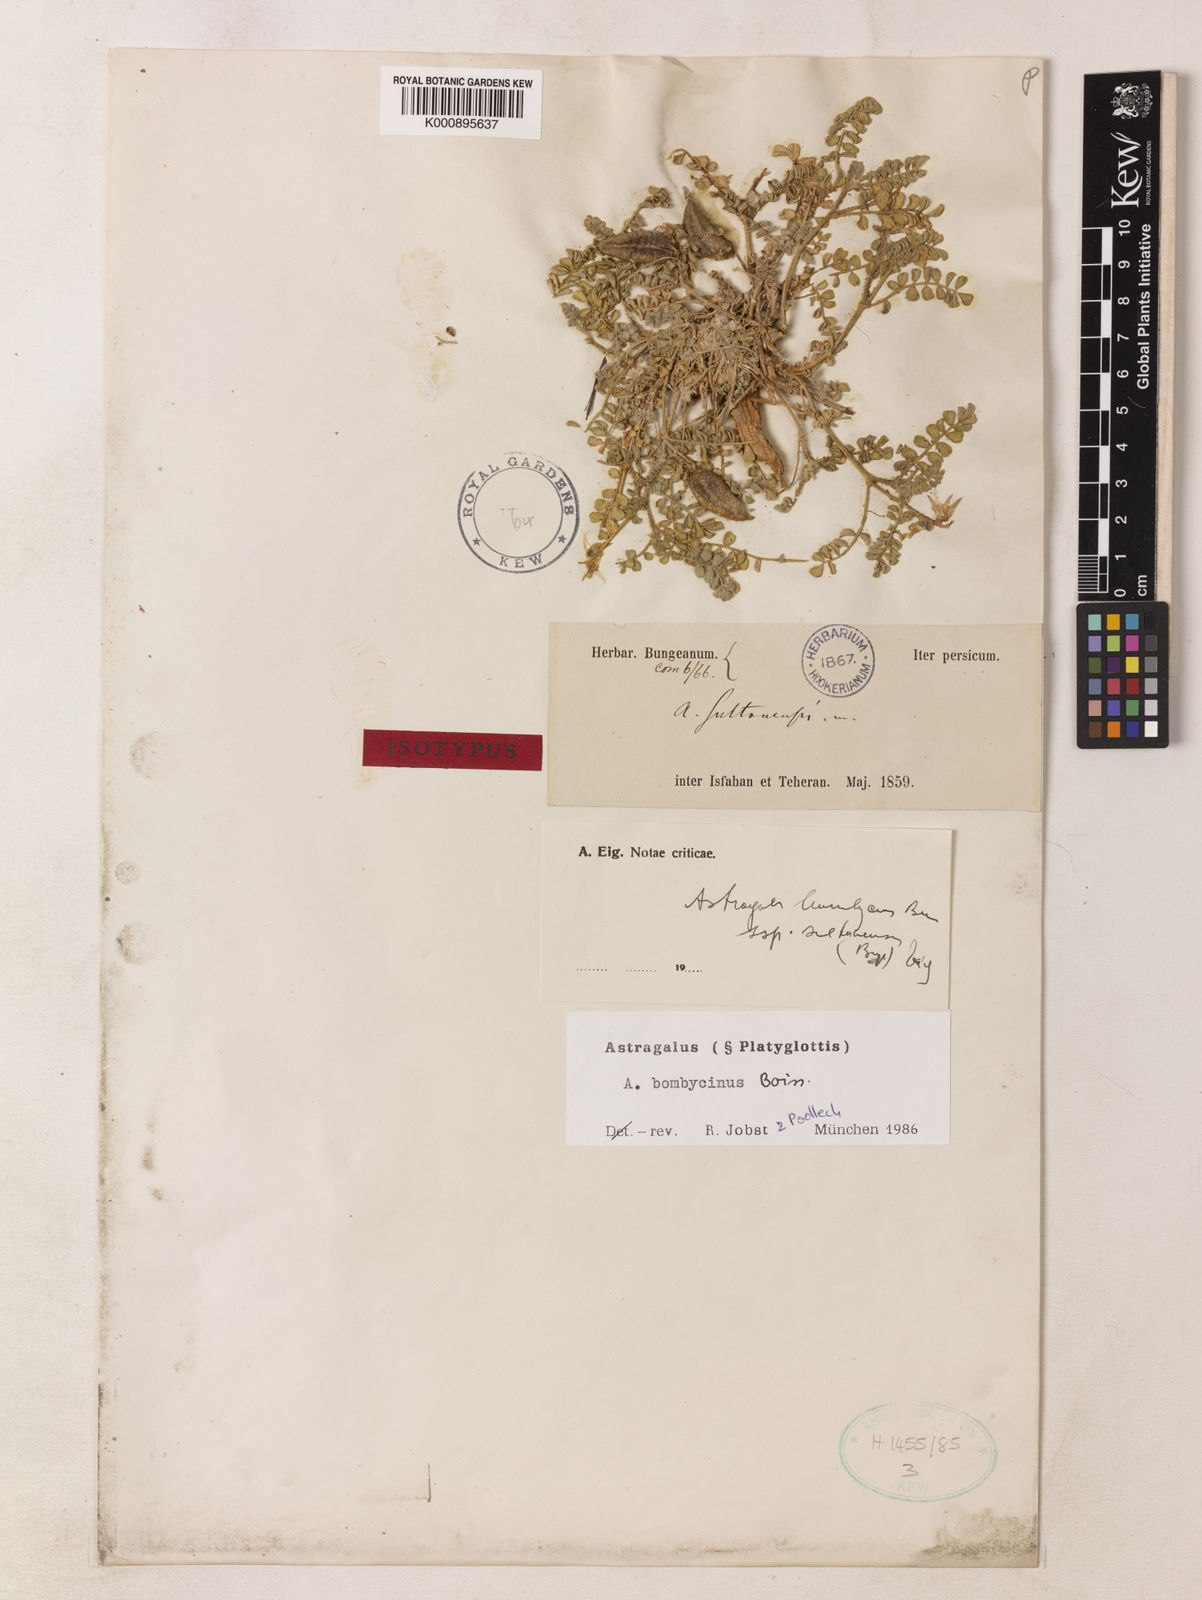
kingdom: Plantae
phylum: Tracheophyta
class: Magnoliopsida
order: Fabales
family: Fabaceae
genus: Astragalus
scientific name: Astragalus bombycinus
